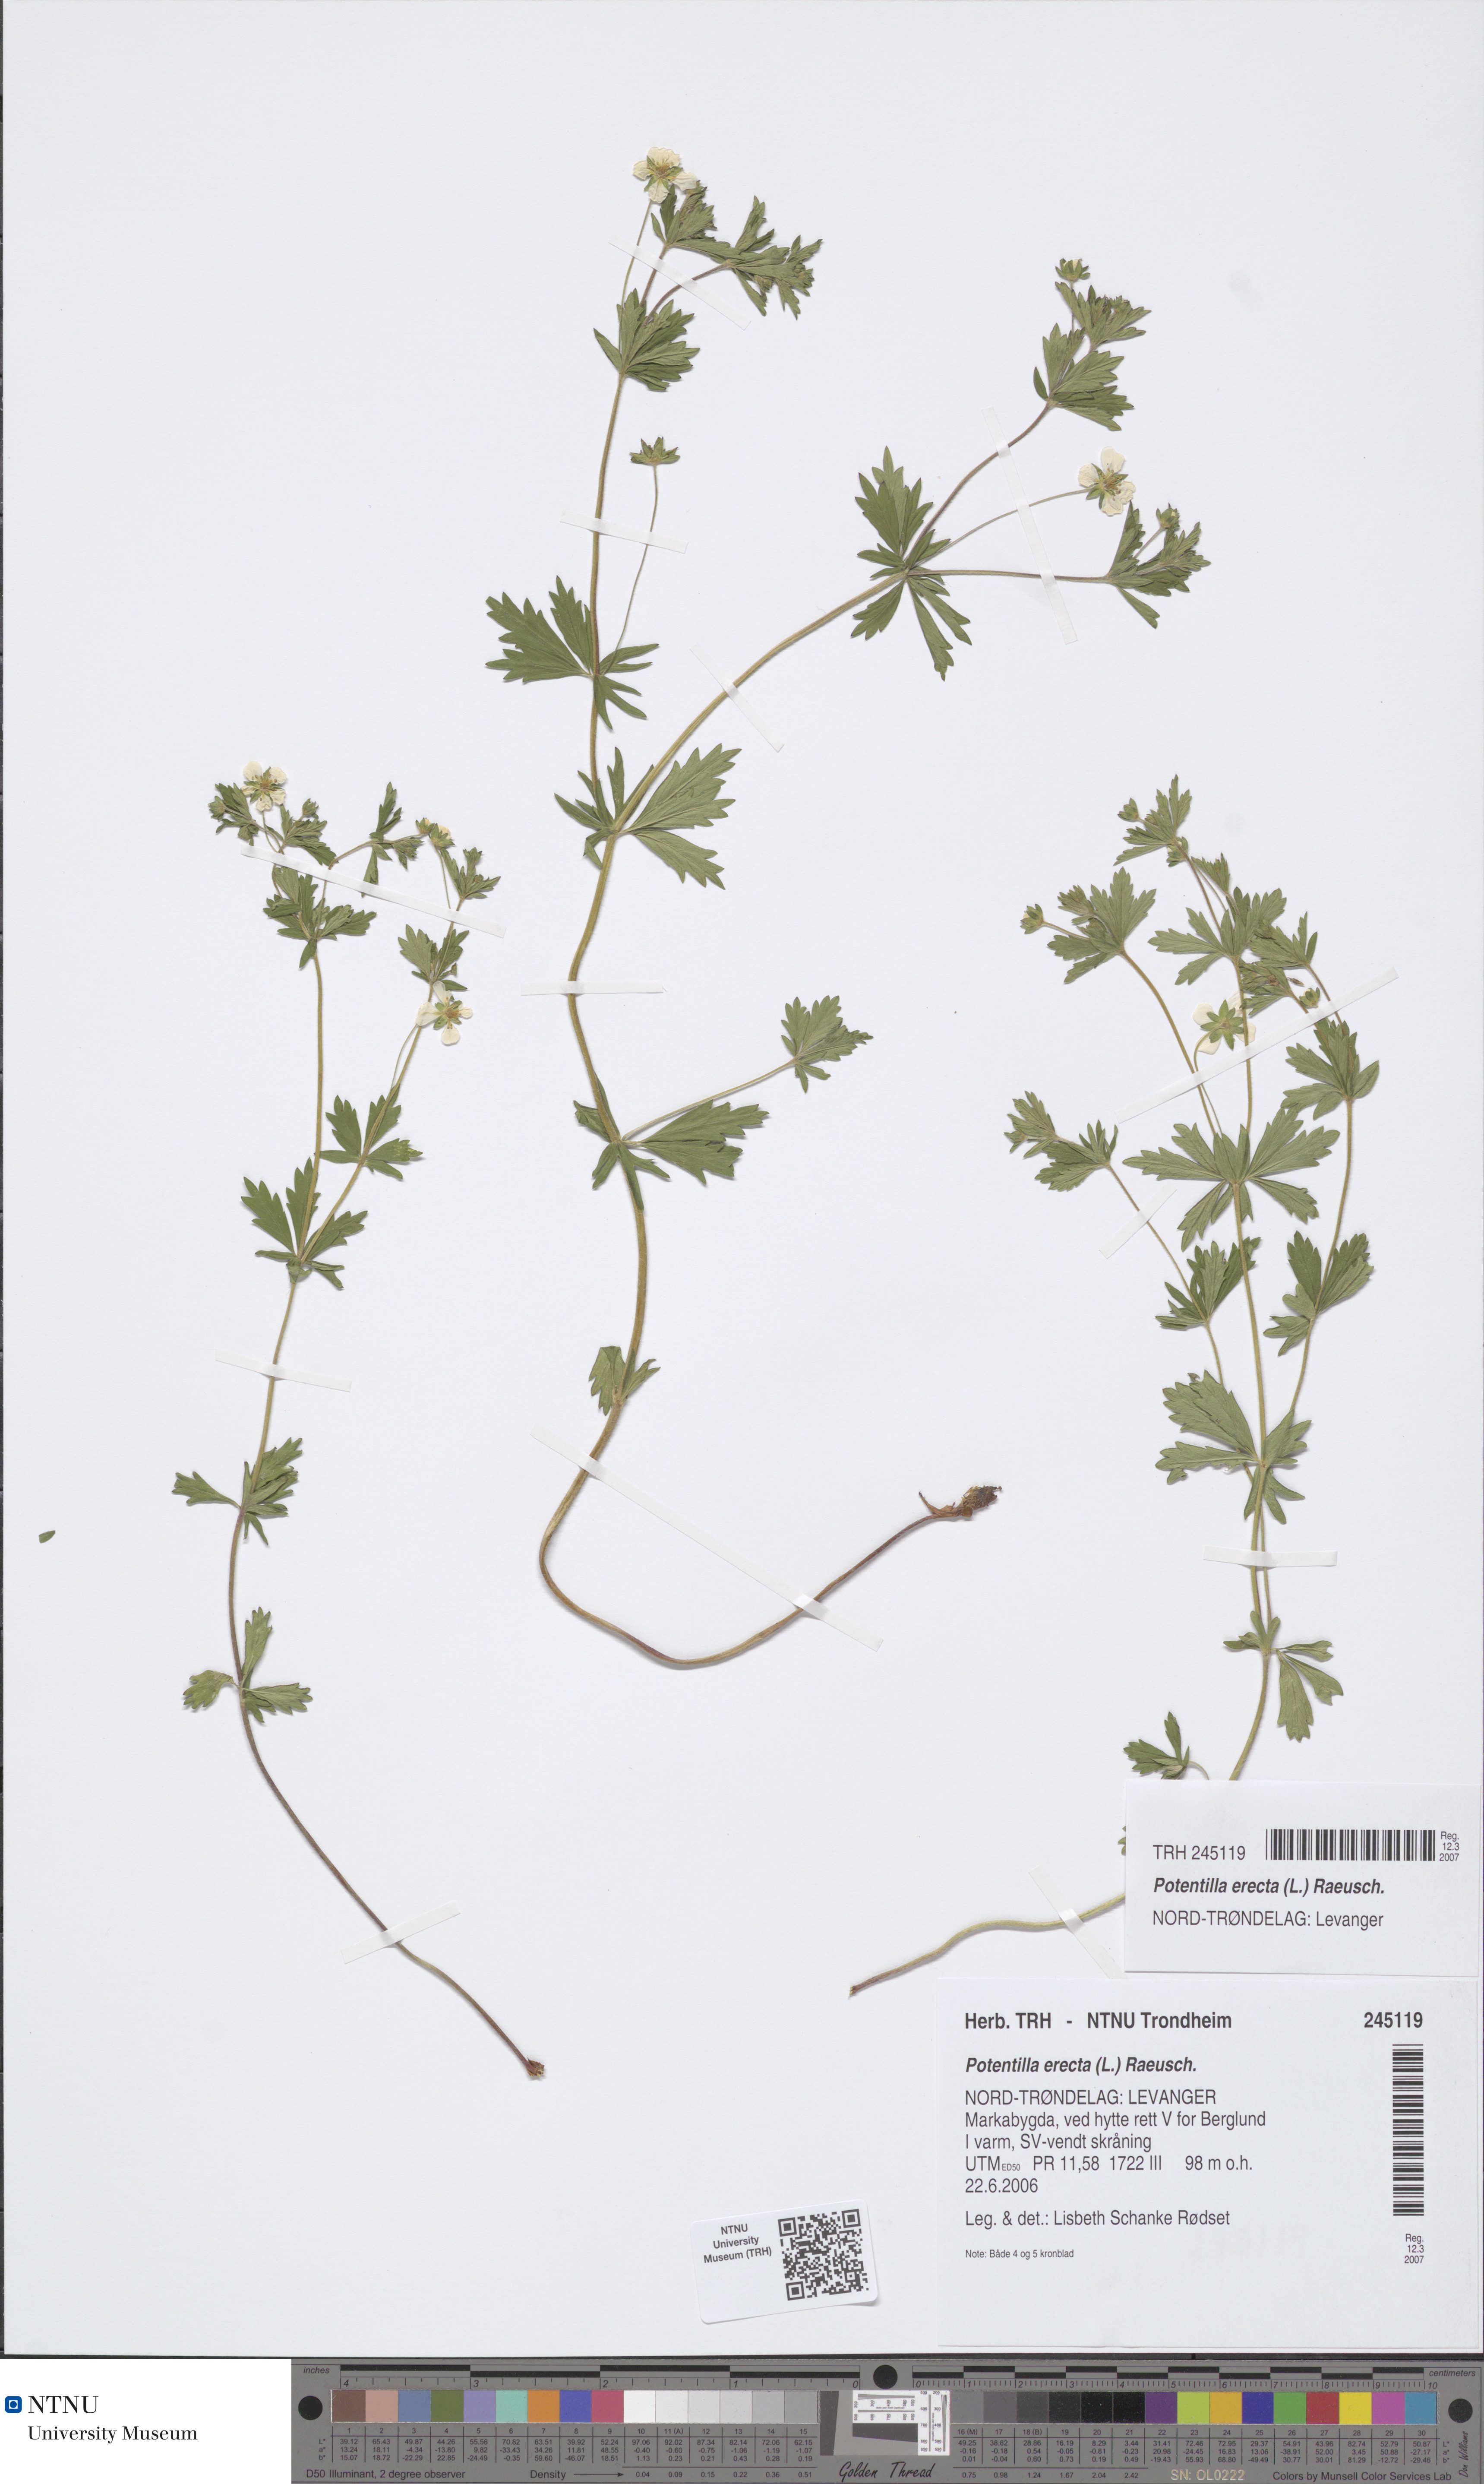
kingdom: Plantae
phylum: Tracheophyta
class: Magnoliopsida
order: Rosales
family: Rosaceae
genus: Potentilla
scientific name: Potentilla erecta
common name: Tormentil
